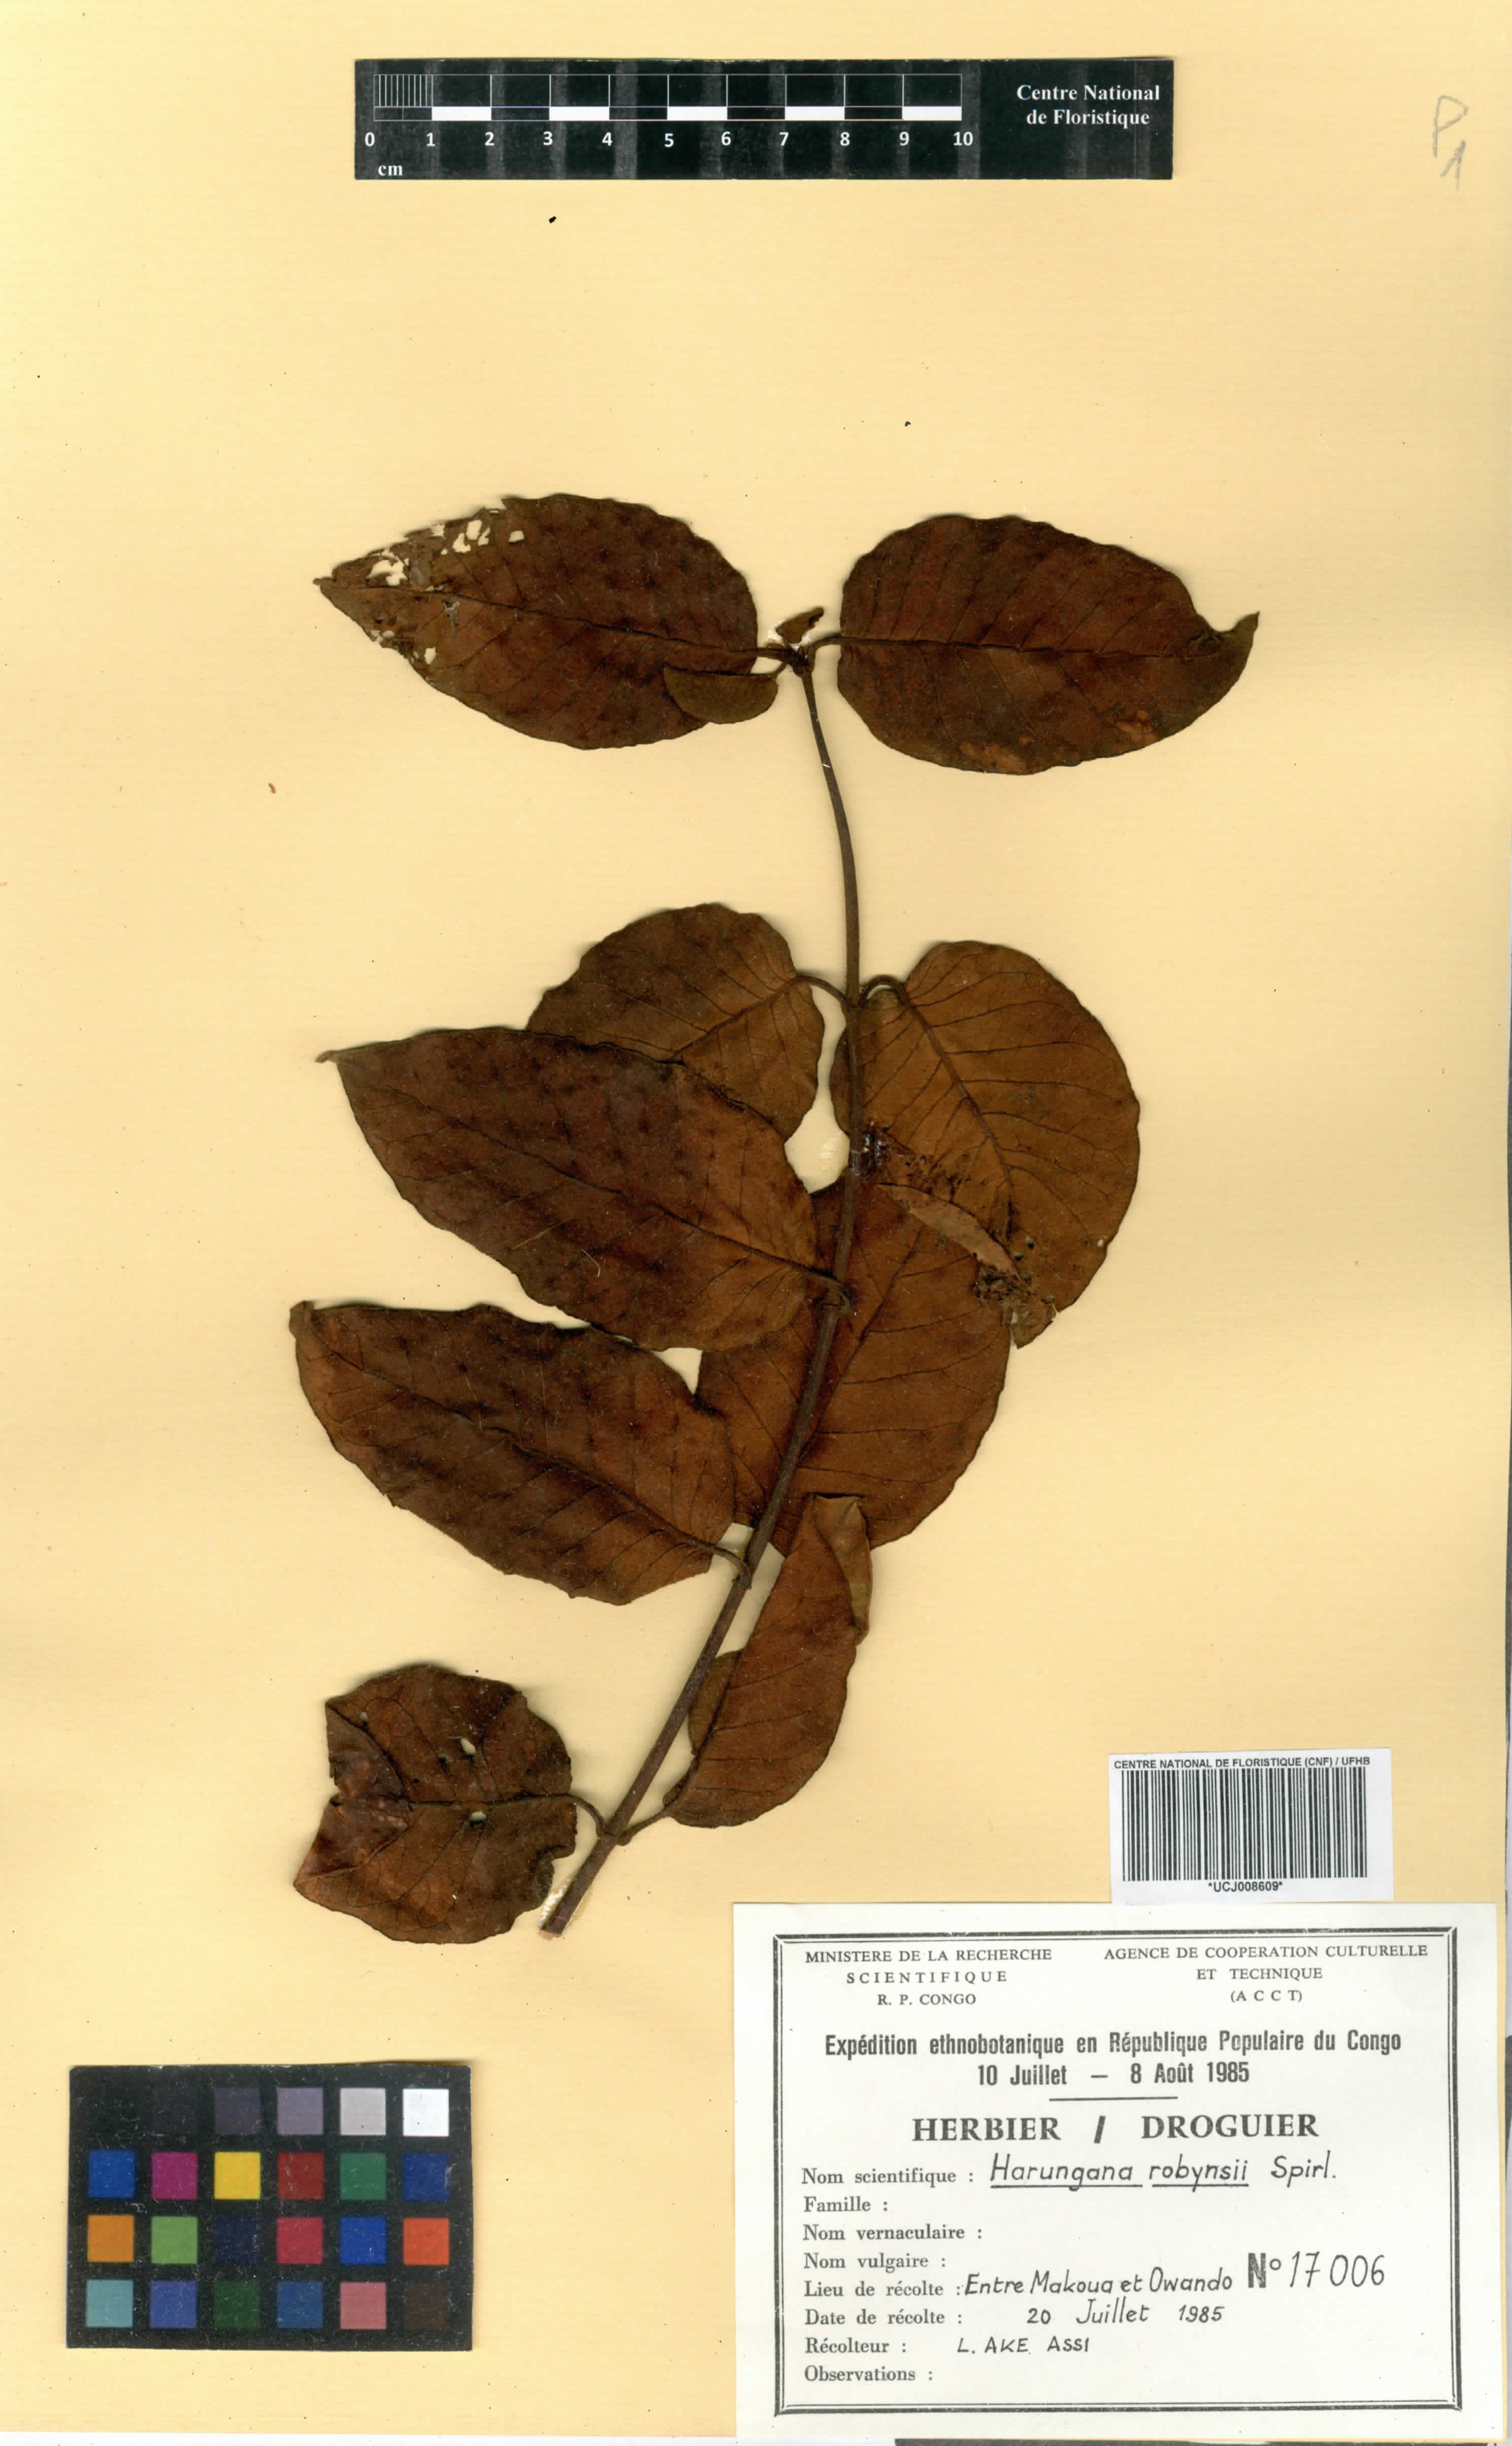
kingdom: Plantae
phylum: Tracheophyta
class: Magnoliopsida
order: Malpighiales
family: Hypericaceae
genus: Harungana
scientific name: Harungana madagascariensis
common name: Orange milktree
